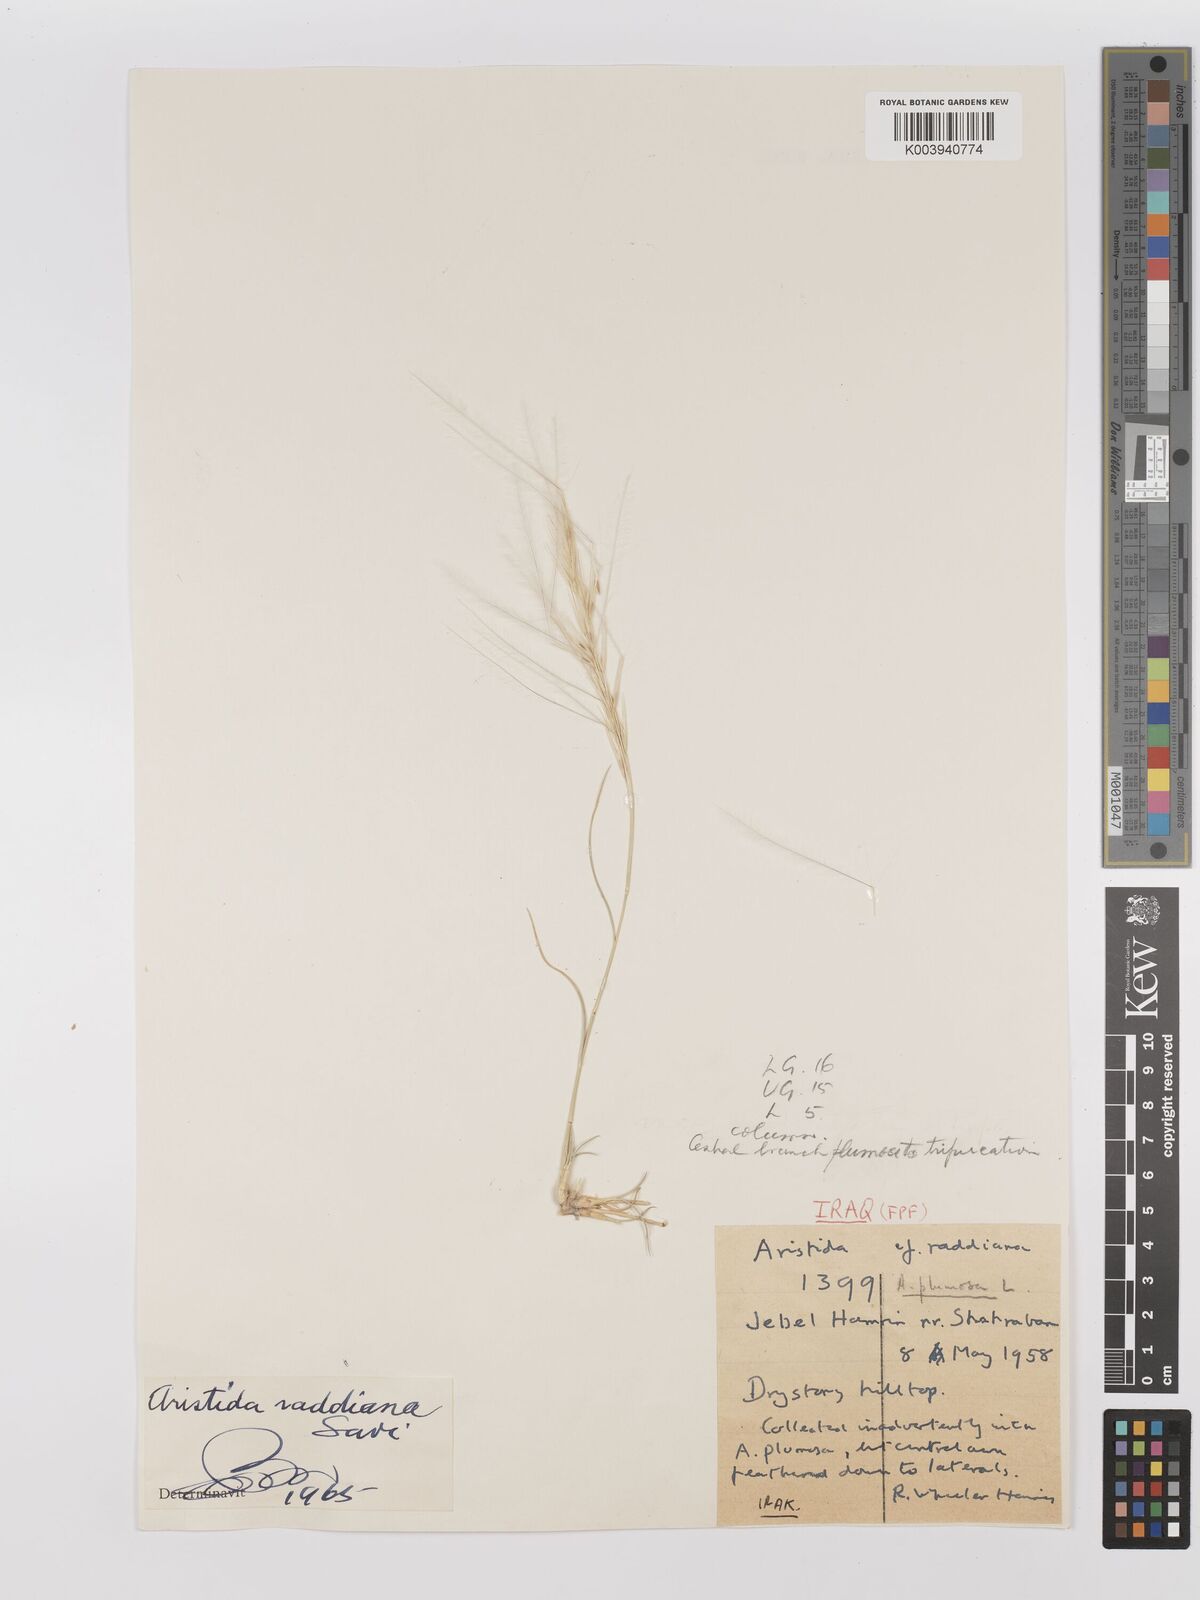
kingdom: Plantae
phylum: Tracheophyta
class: Liliopsida
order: Poales
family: Poaceae
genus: Stipagrostis
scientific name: Stipagrostis raddiana
